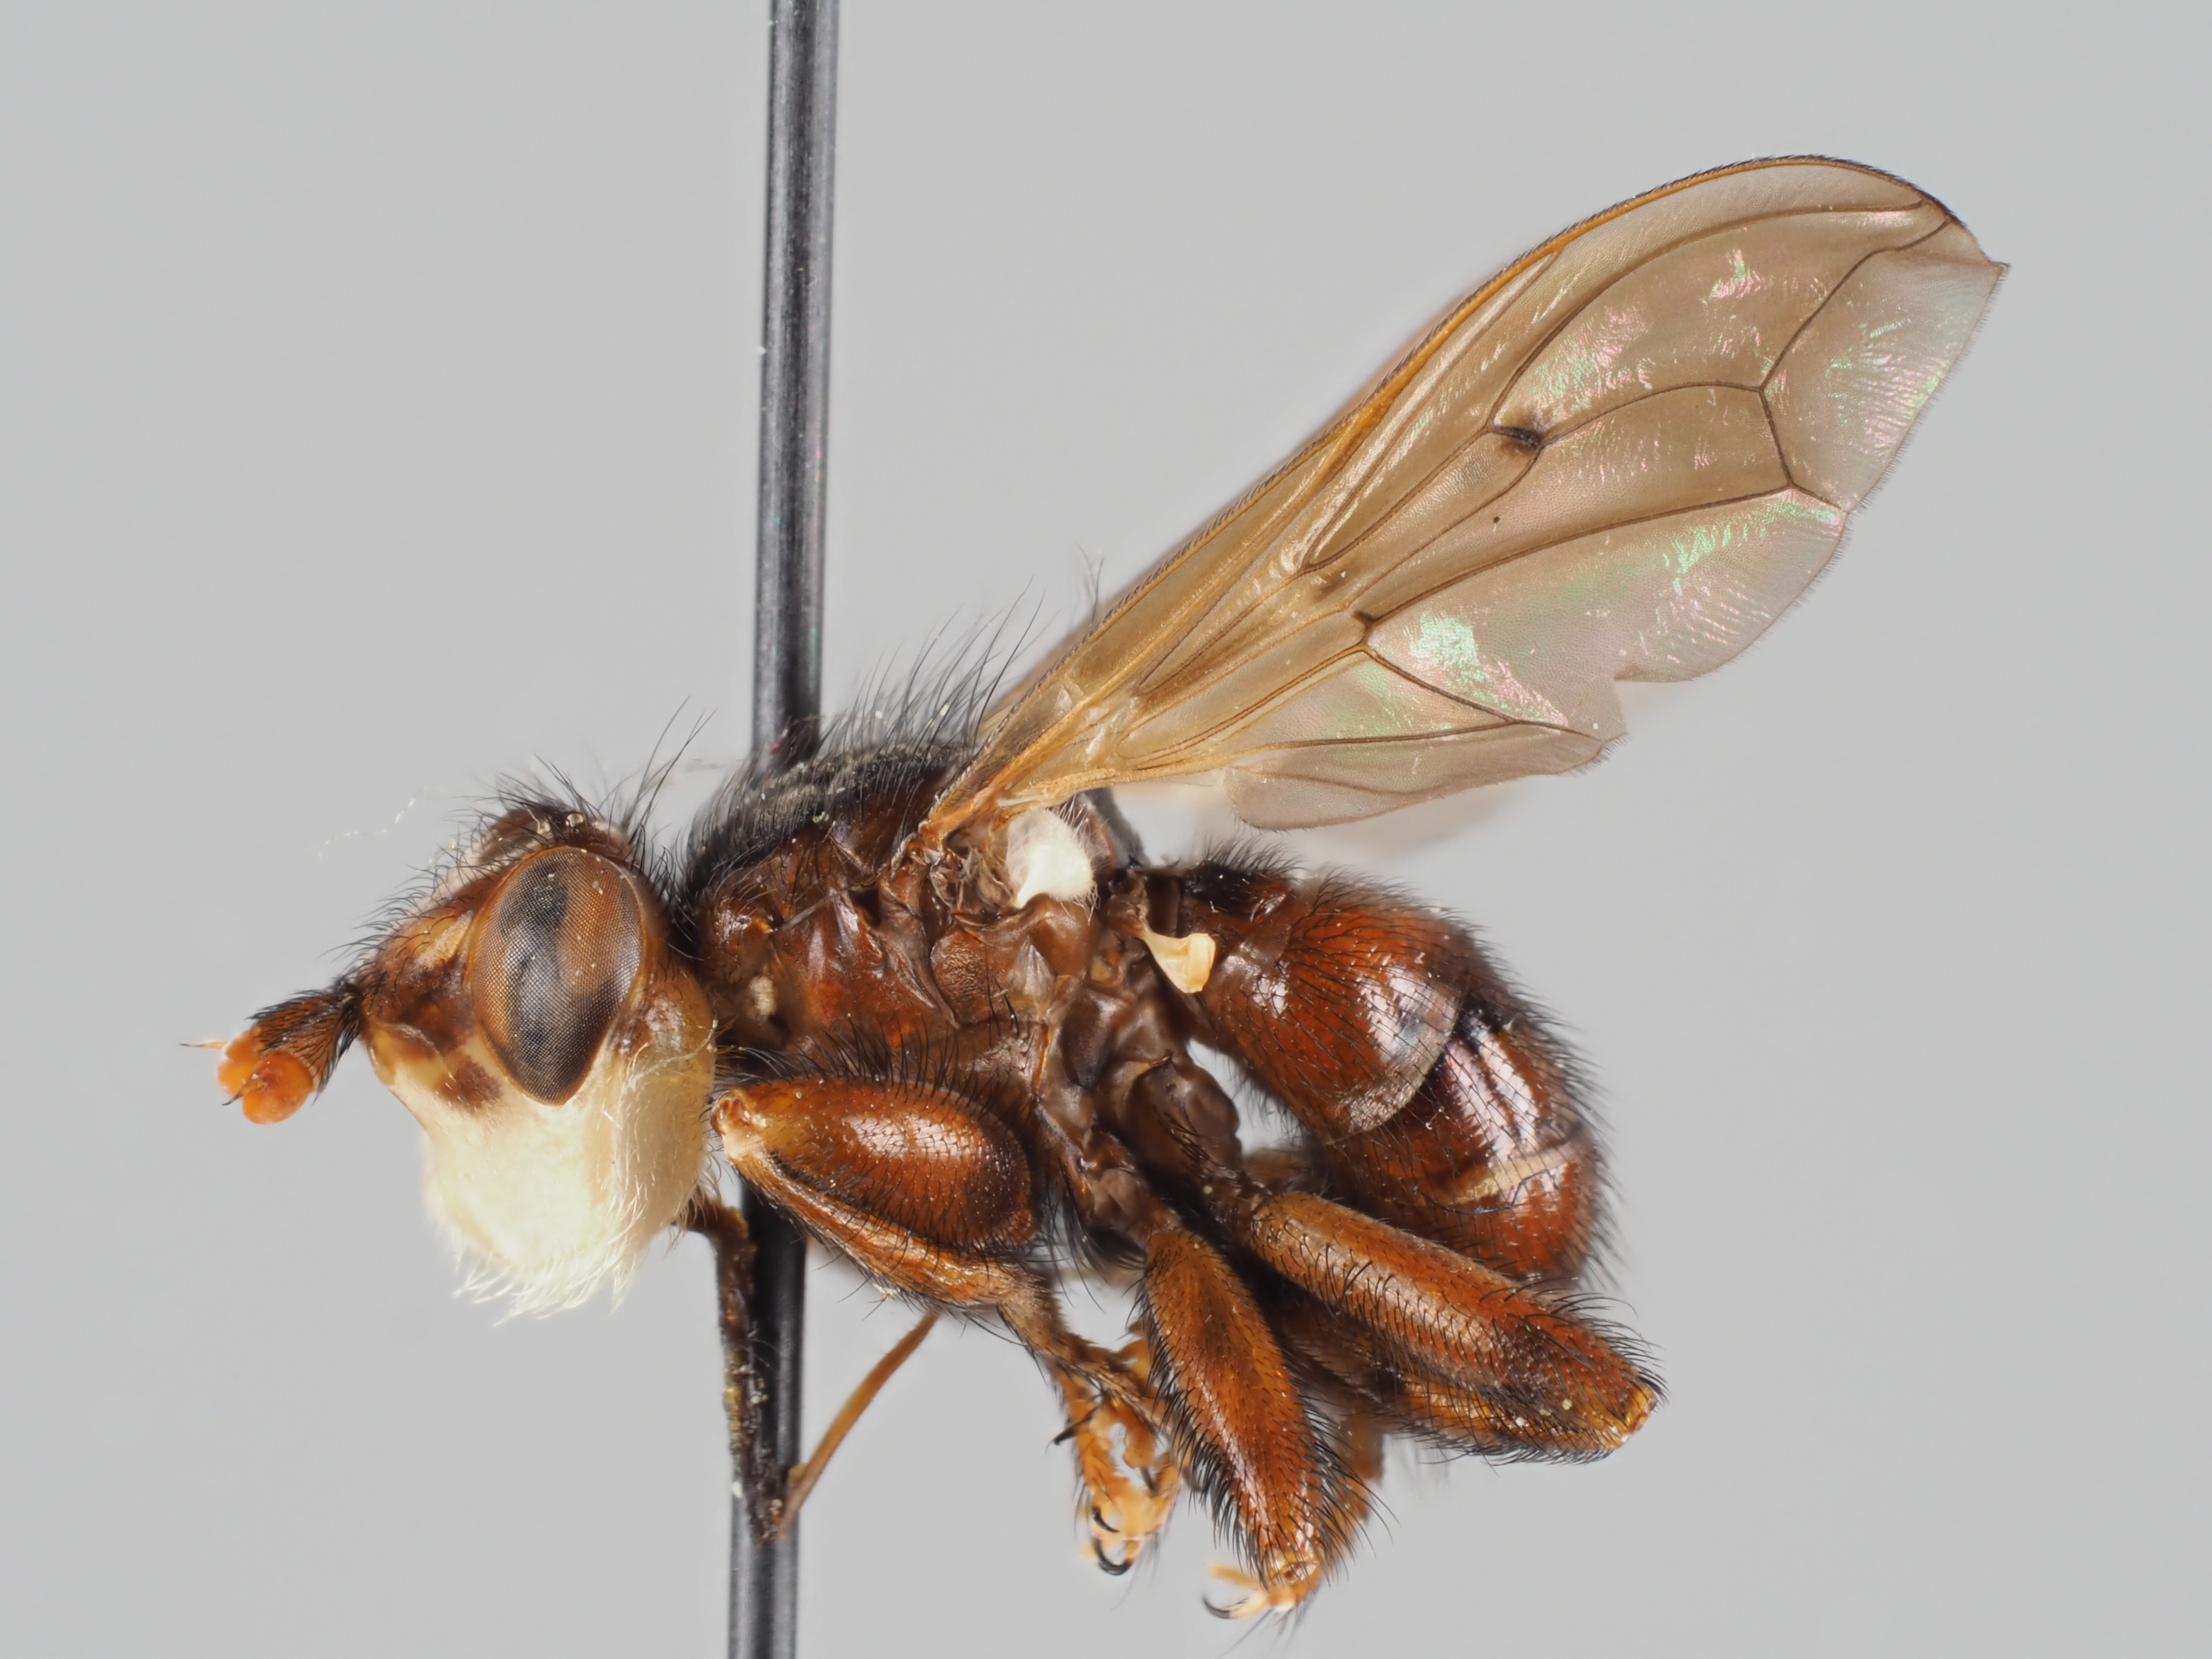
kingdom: Animalia
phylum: Arthropoda
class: Insecta
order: Diptera
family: Conopidae
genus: Myopa
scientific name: Myopa testacea
